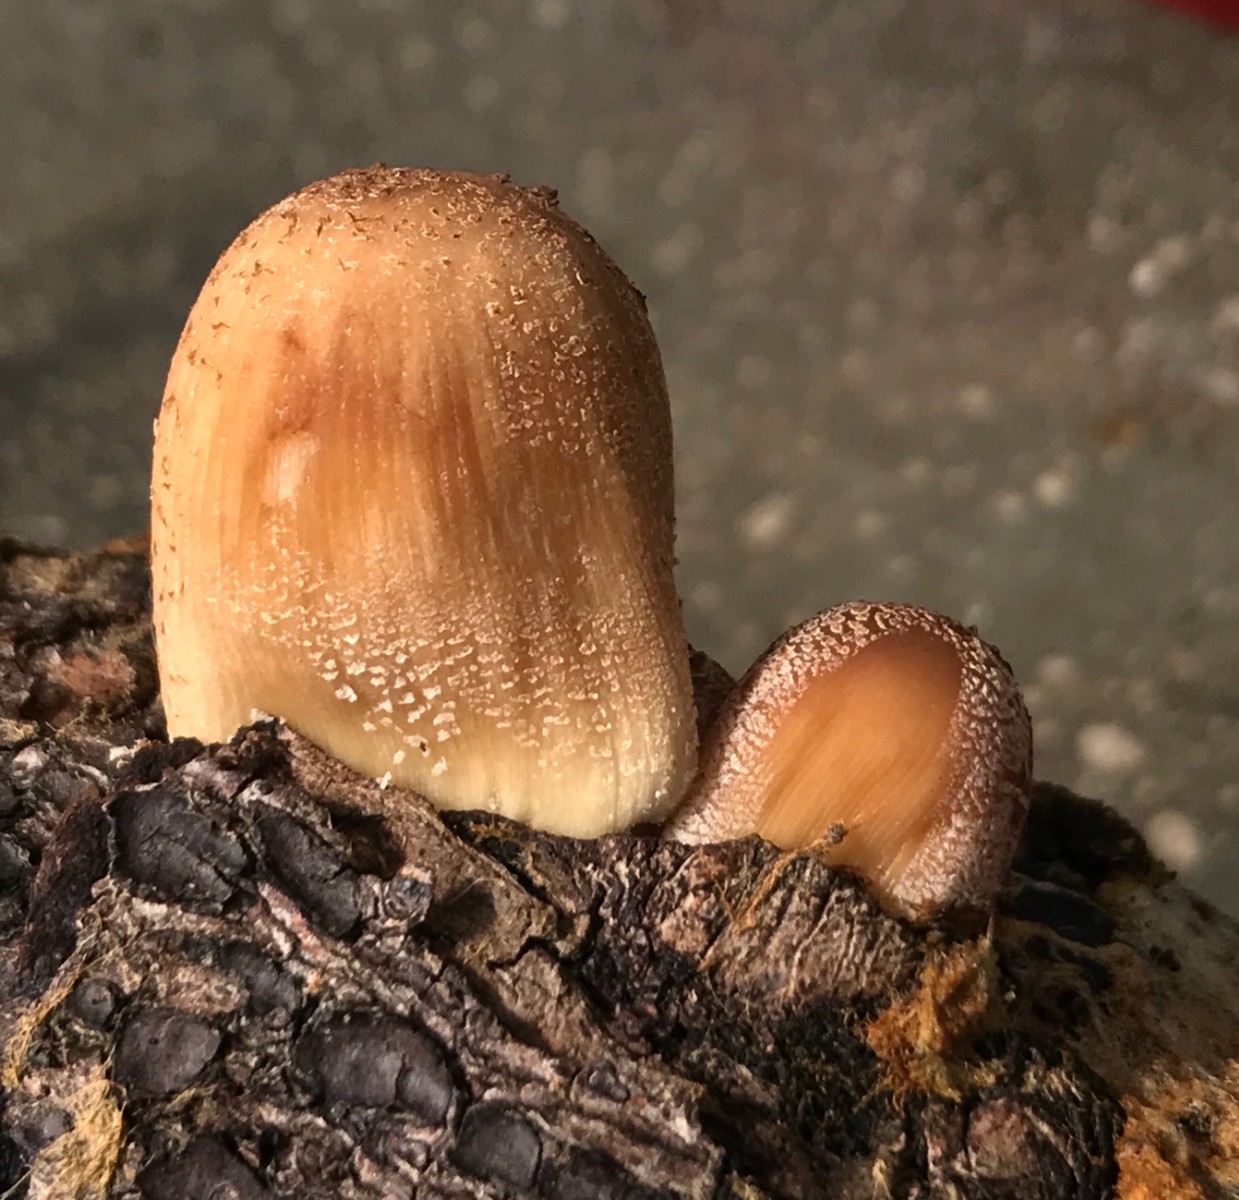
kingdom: Fungi
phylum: Basidiomycota
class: Agaricomycetes
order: Agaricales
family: Psathyrellaceae
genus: Coprinellus
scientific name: Coprinellus micaceus
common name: glimmer-blækhat
